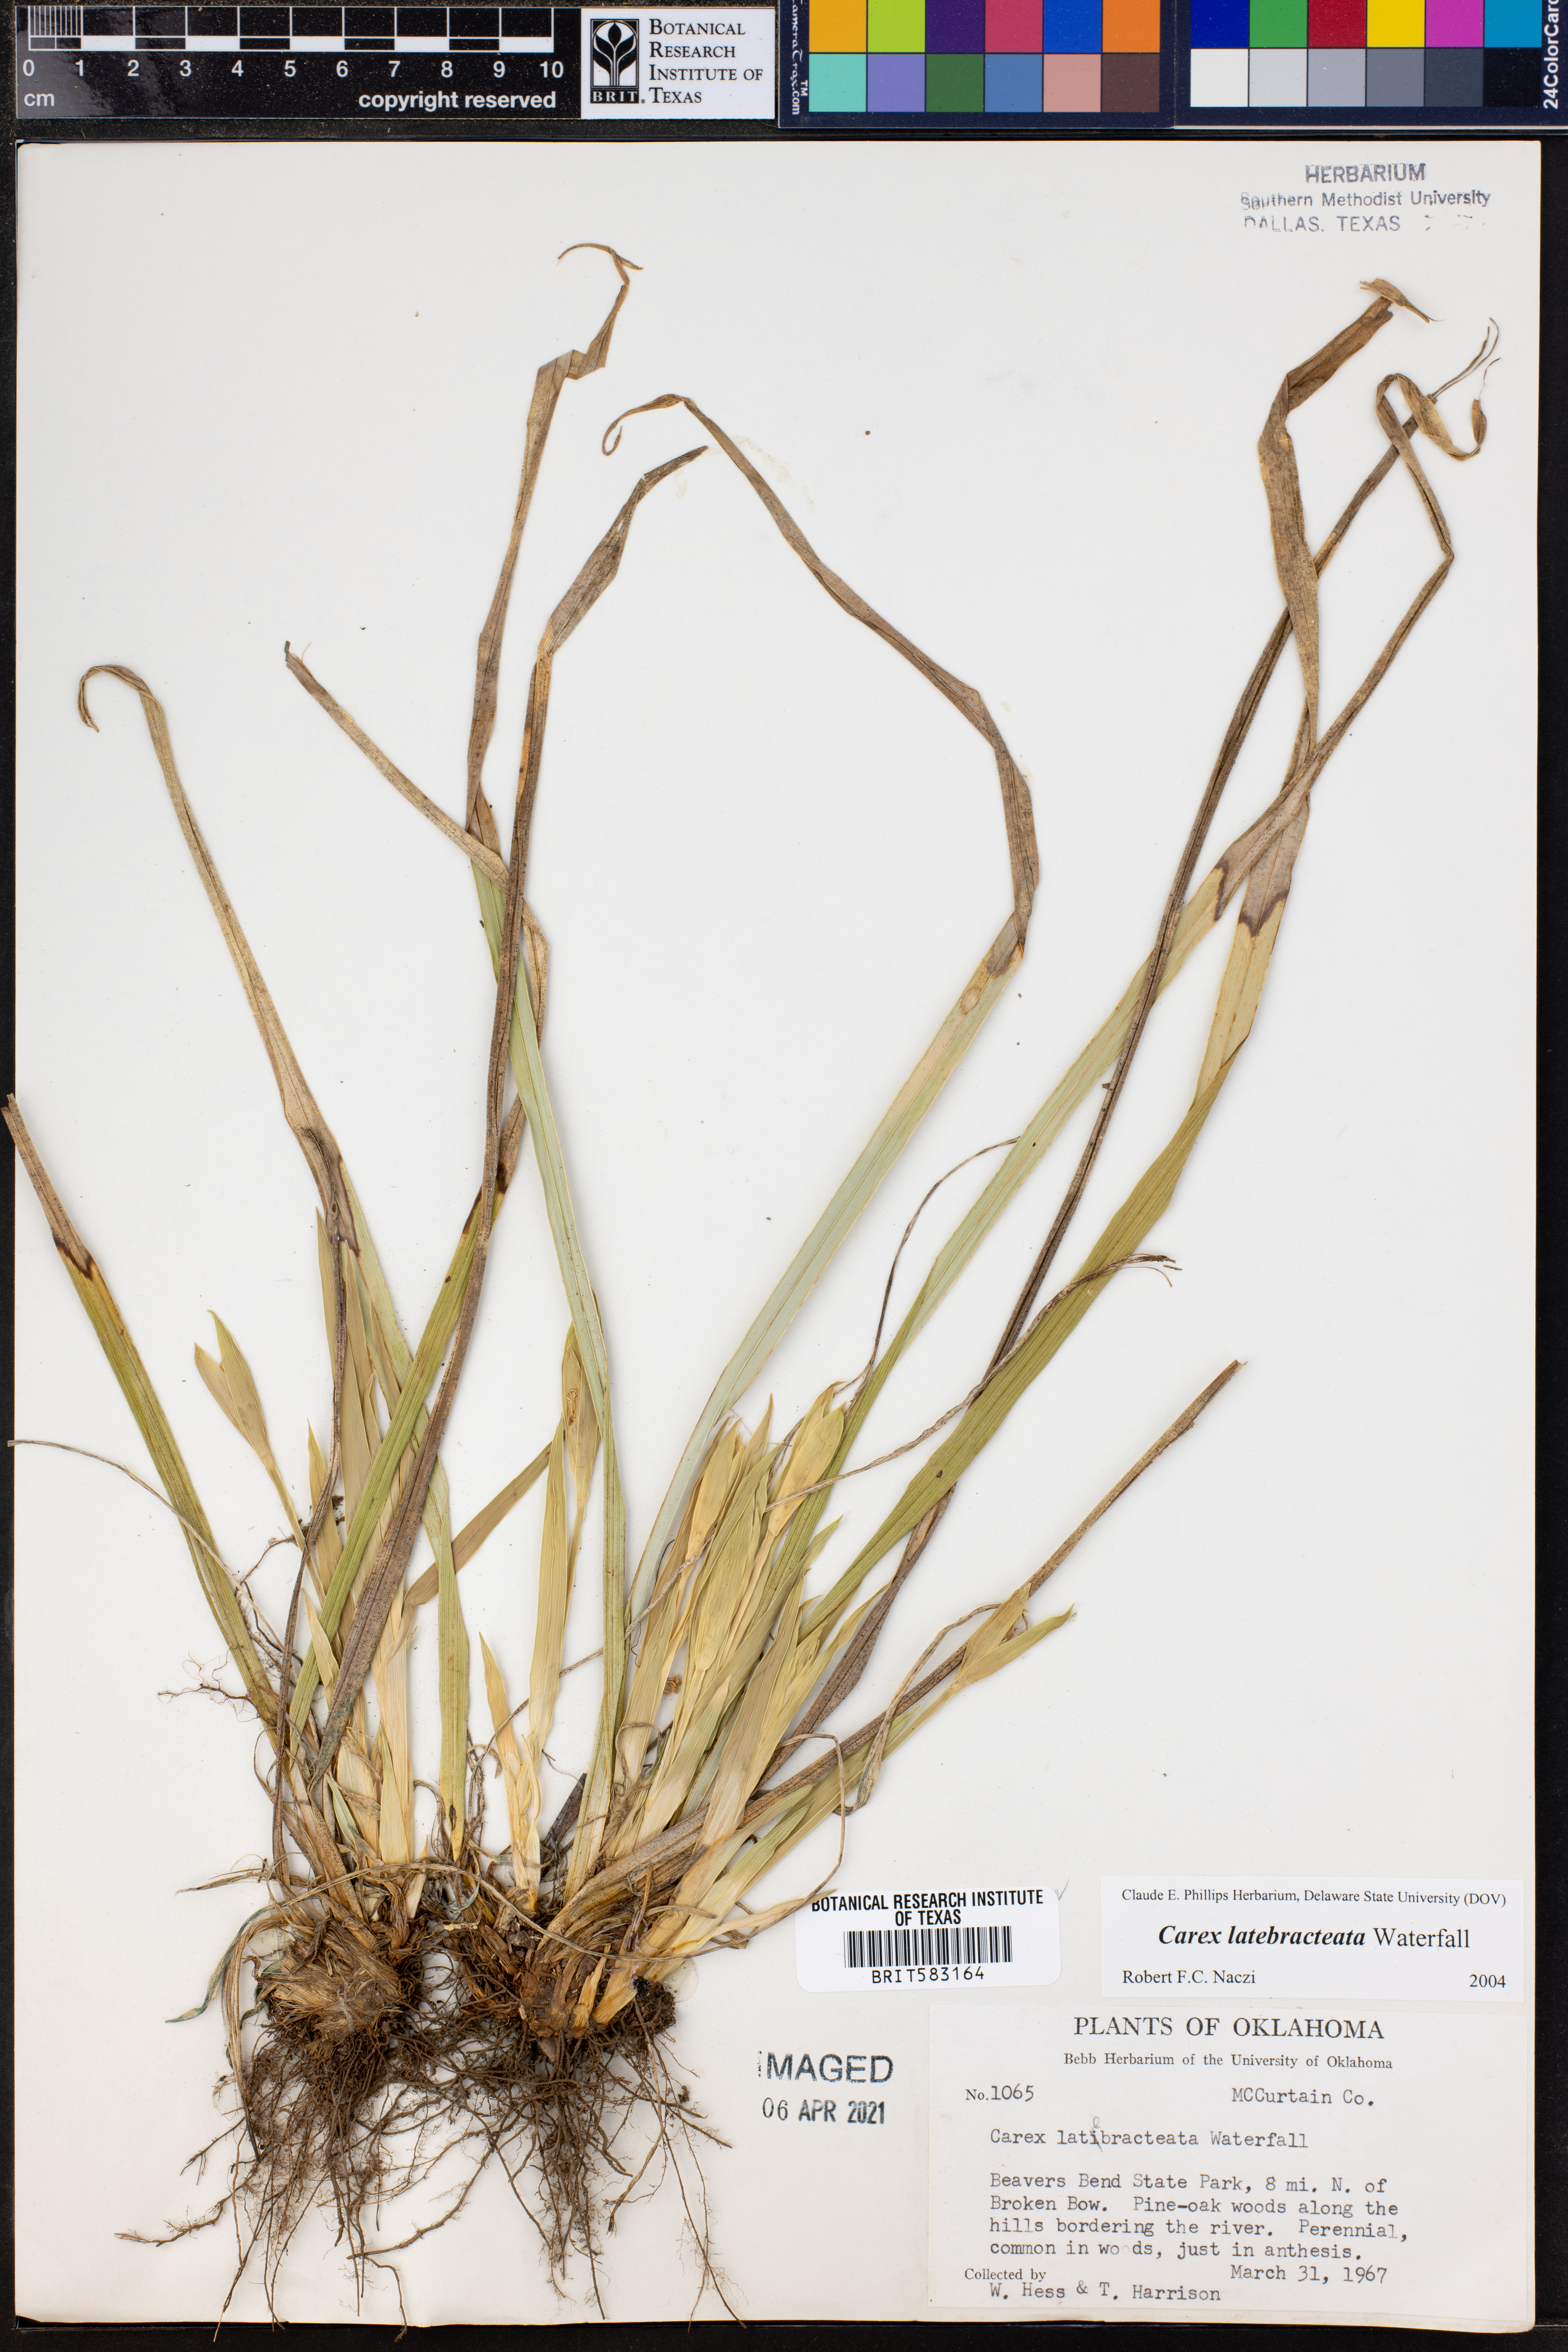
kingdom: Plantae
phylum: Tracheophyta
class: Liliopsida
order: Poales
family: Cyperaceae
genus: Carex
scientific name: Carex latebracteata
